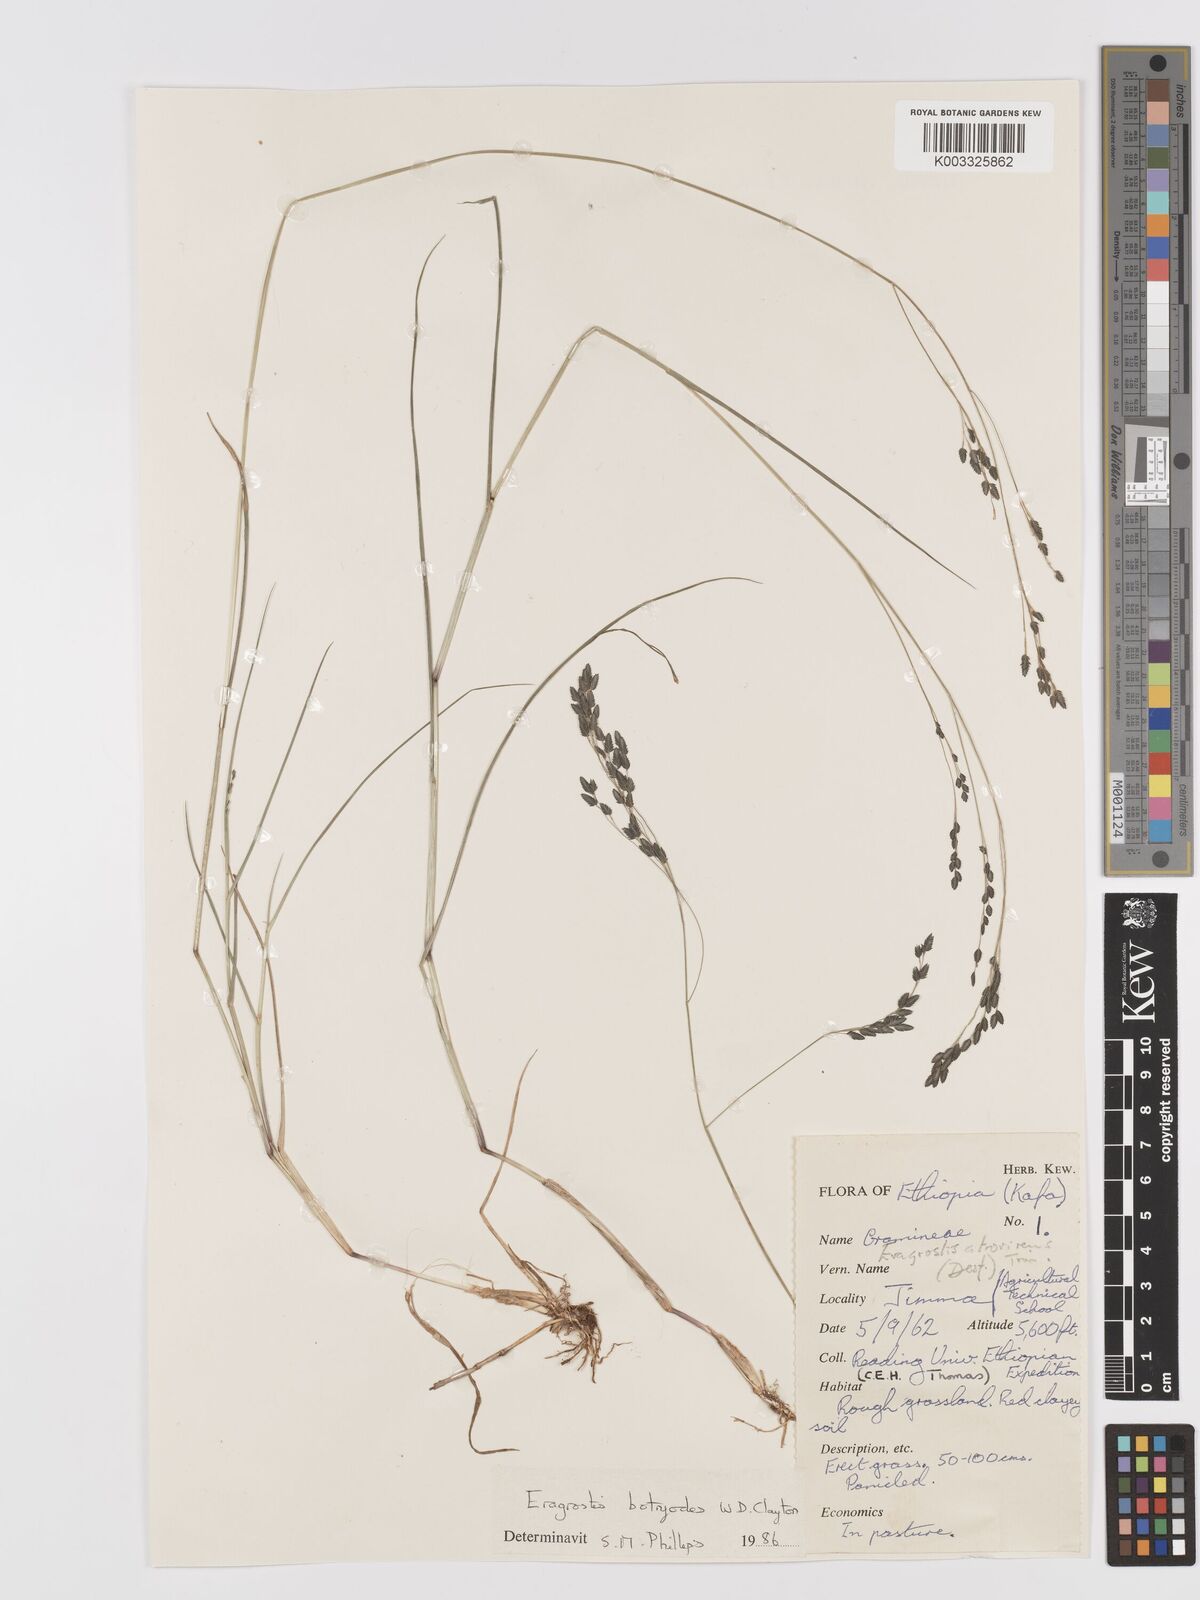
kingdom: Plantae
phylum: Tracheophyta
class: Liliopsida
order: Poales
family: Poaceae
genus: Eragrostis
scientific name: Eragrostis botryodes
